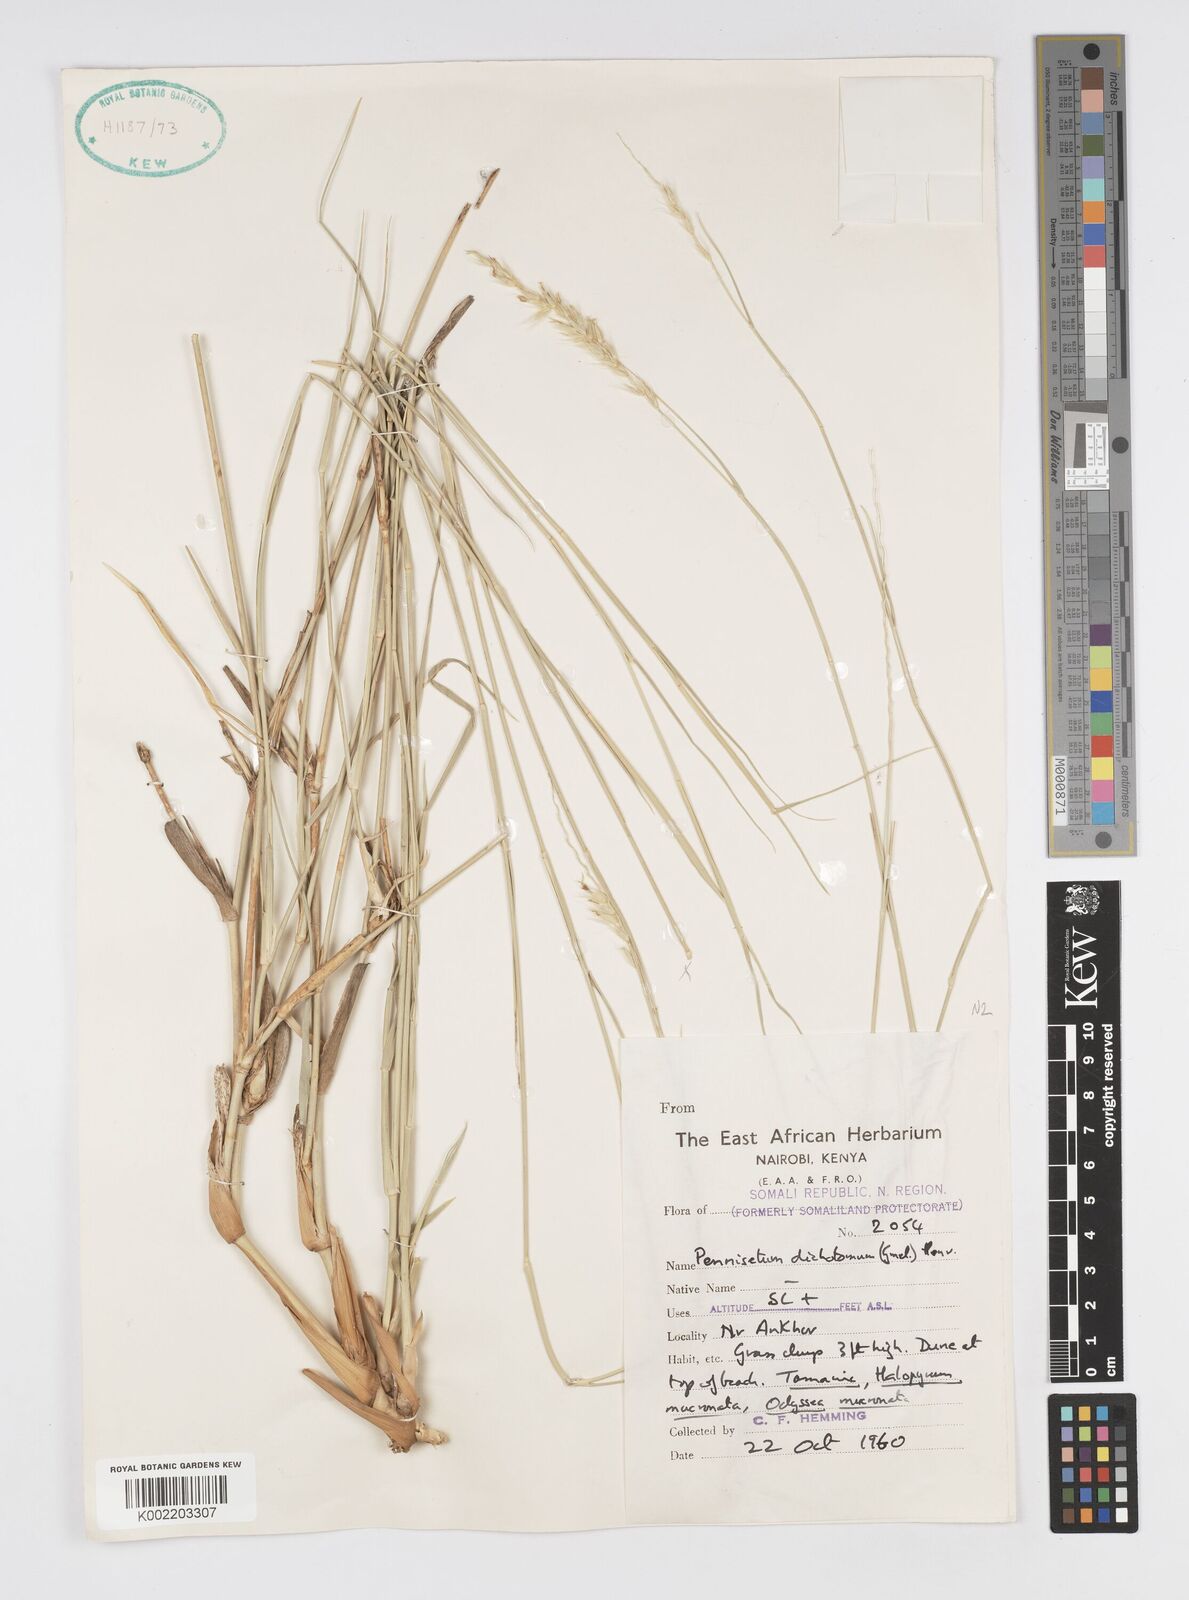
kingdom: Plantae
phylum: Tracheophyta
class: Liliopsida
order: Poales
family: Poaceae
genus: Cenchrus
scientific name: Cenchrus divisus
